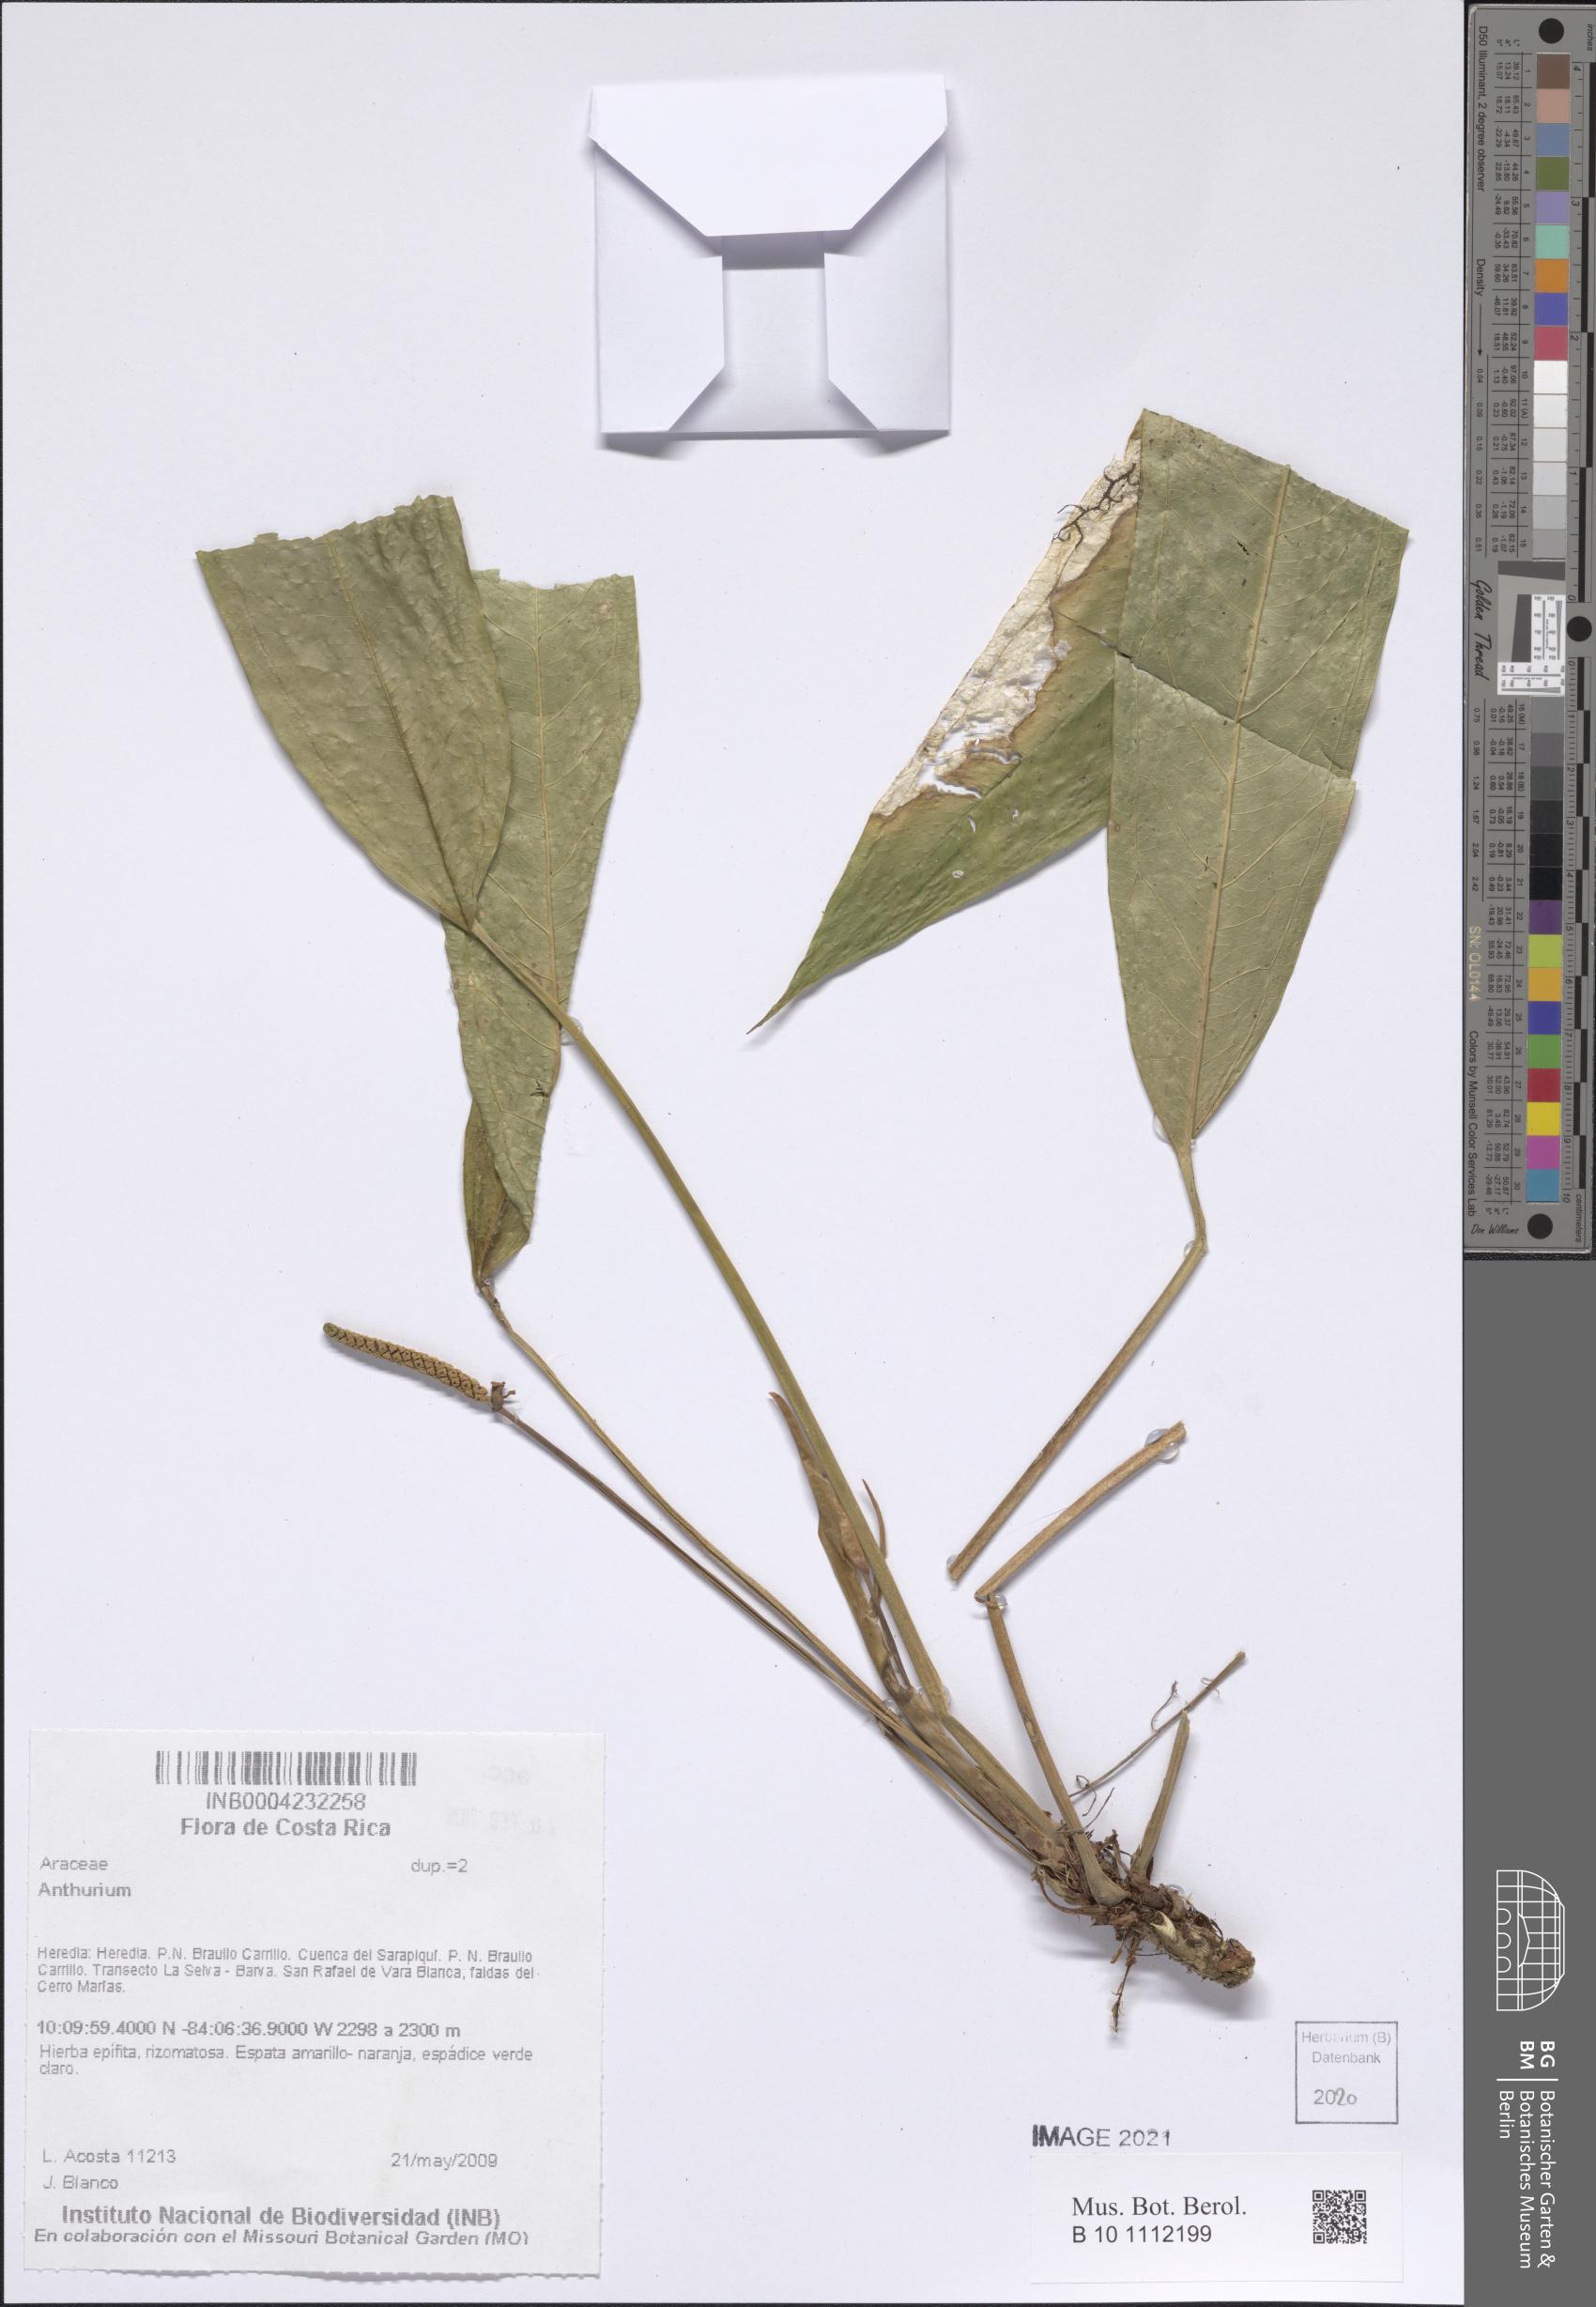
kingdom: Plantae
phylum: Tracheophyta
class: Liliopsida
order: Alismatales
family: Araceae
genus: Anthurium
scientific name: Anthurium
